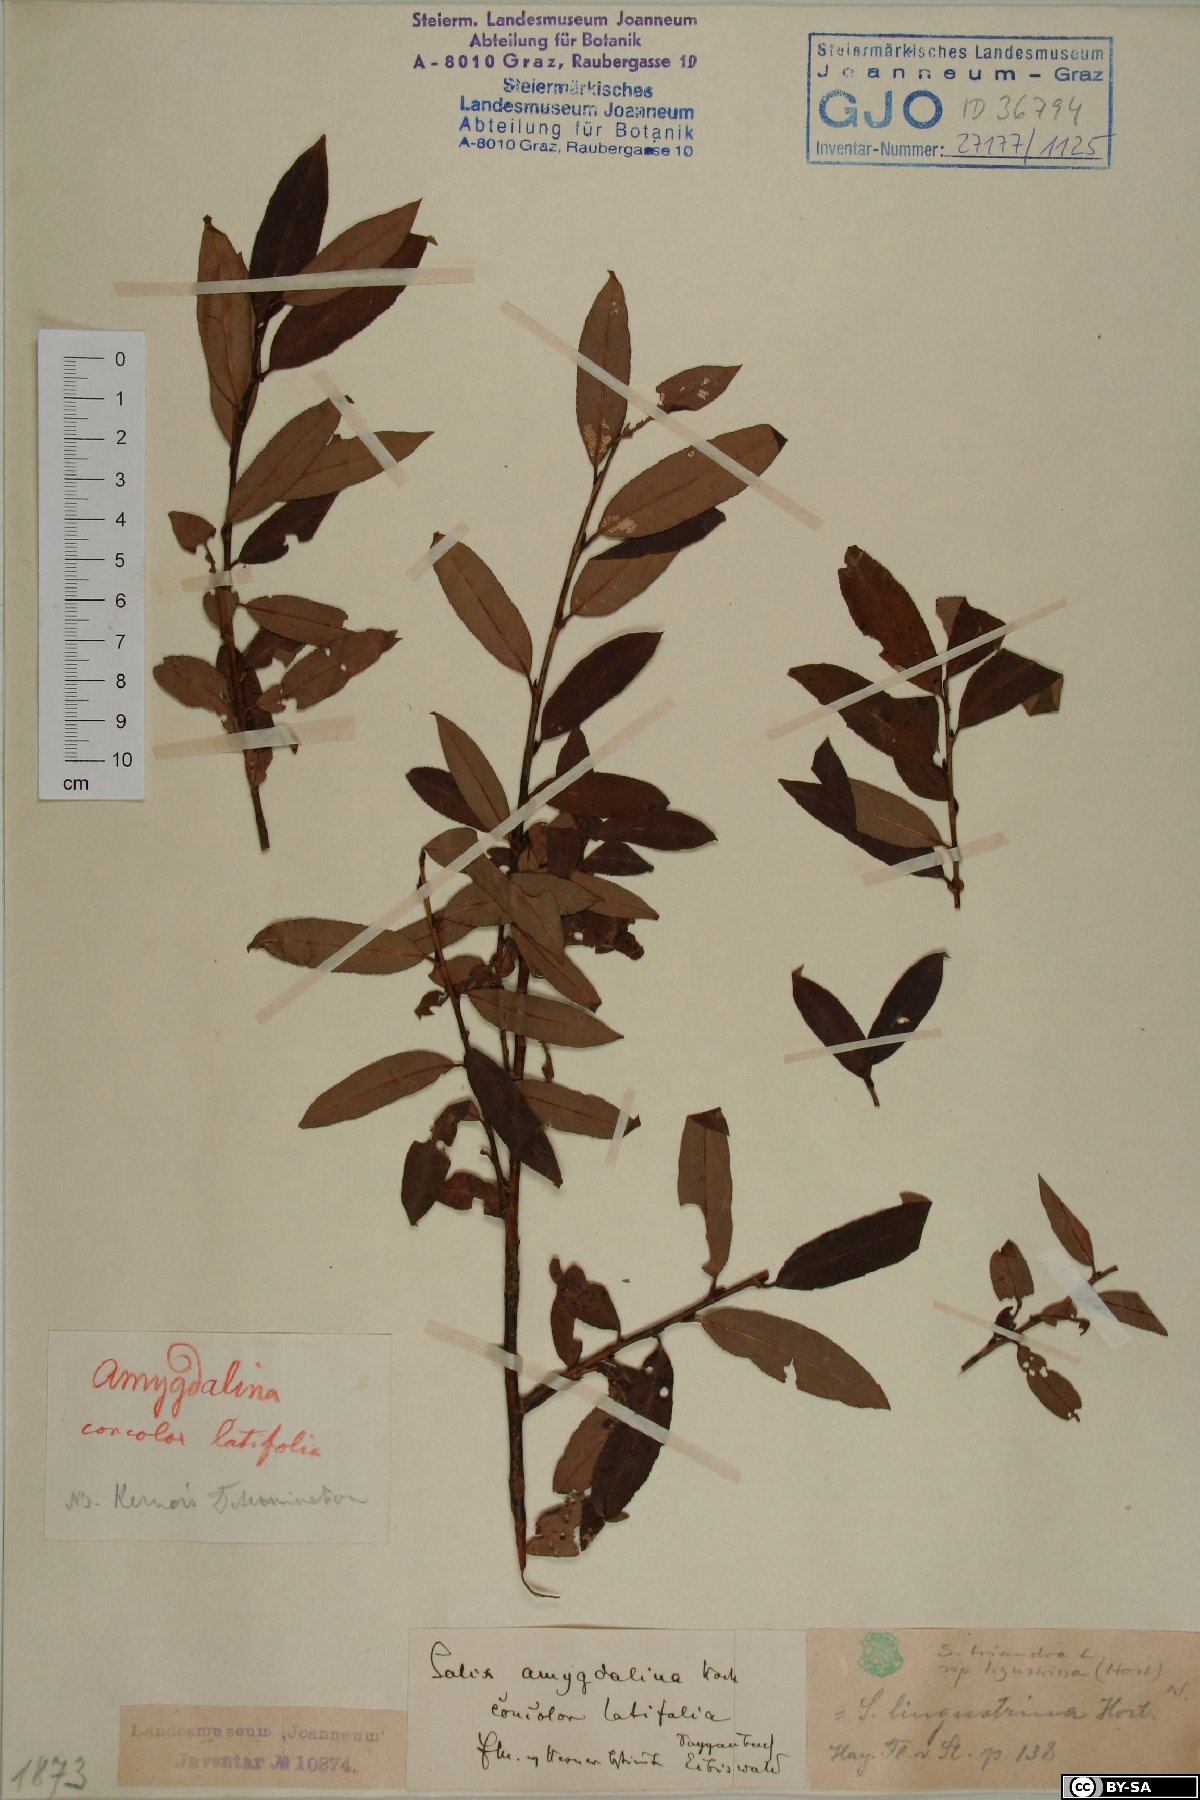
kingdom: Plantae
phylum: Tracheophyta
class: Magnoliopsida
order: Malpighiales
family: Salicaceae
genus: Salix
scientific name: Salix triandra
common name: Almond willow
